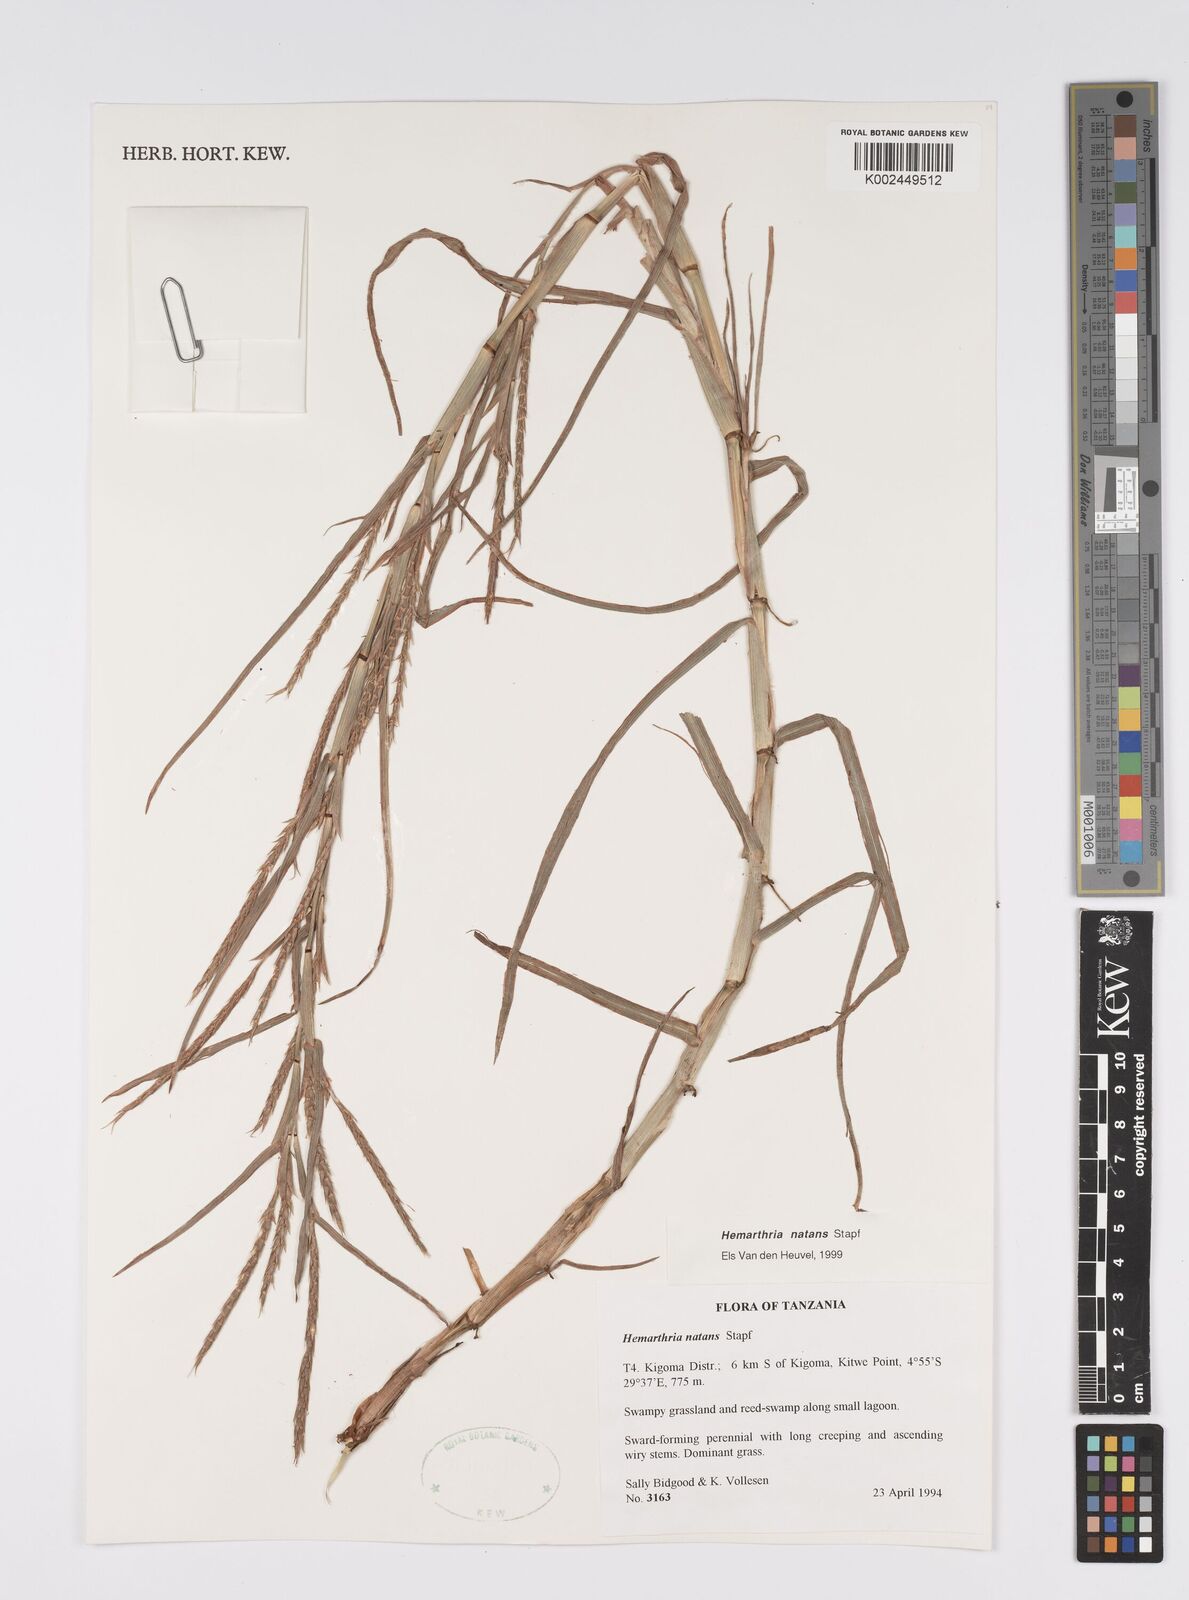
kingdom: Plantae
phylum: Tracheophyta
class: Liliopsida
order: Poales
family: Poaceae
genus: Hemarthria
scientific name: Hemarthria natans
